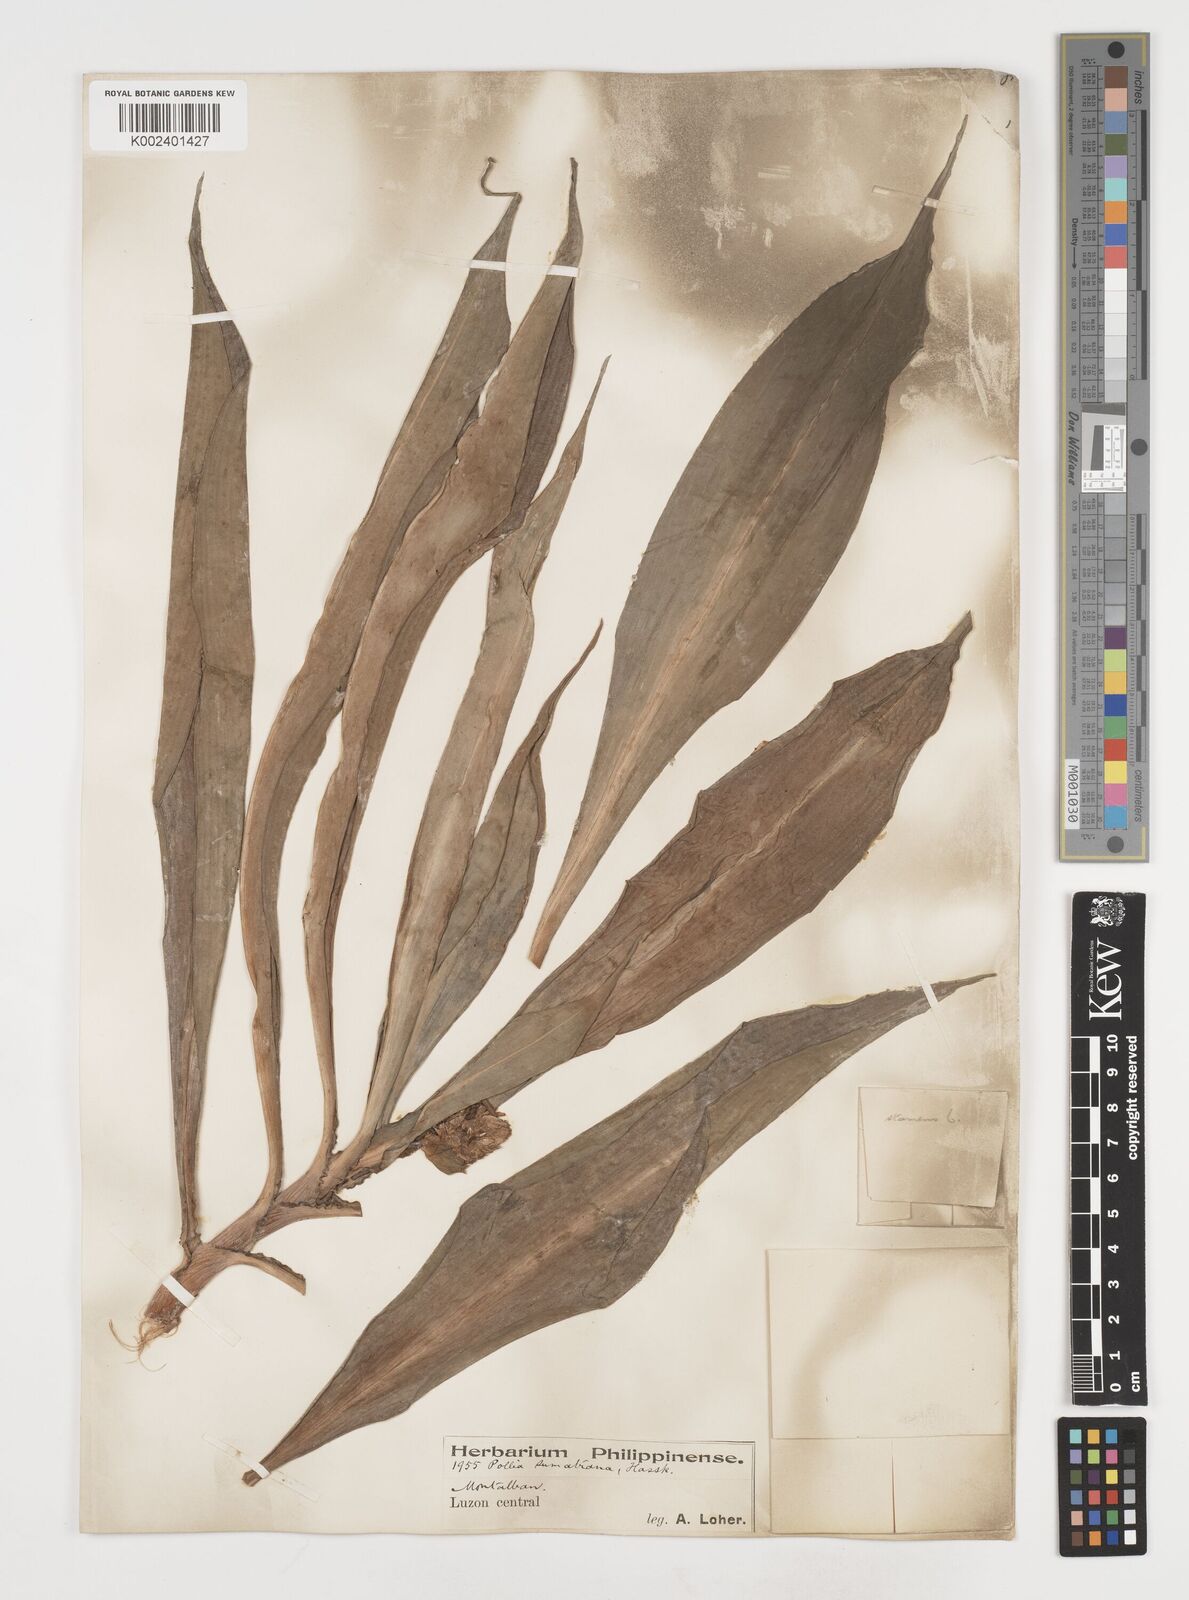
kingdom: Plantae
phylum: Tracheophyta
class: Liliopsida
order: Commelinales
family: Commelinaceae
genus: Pollia
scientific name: Pollia sumatrana
